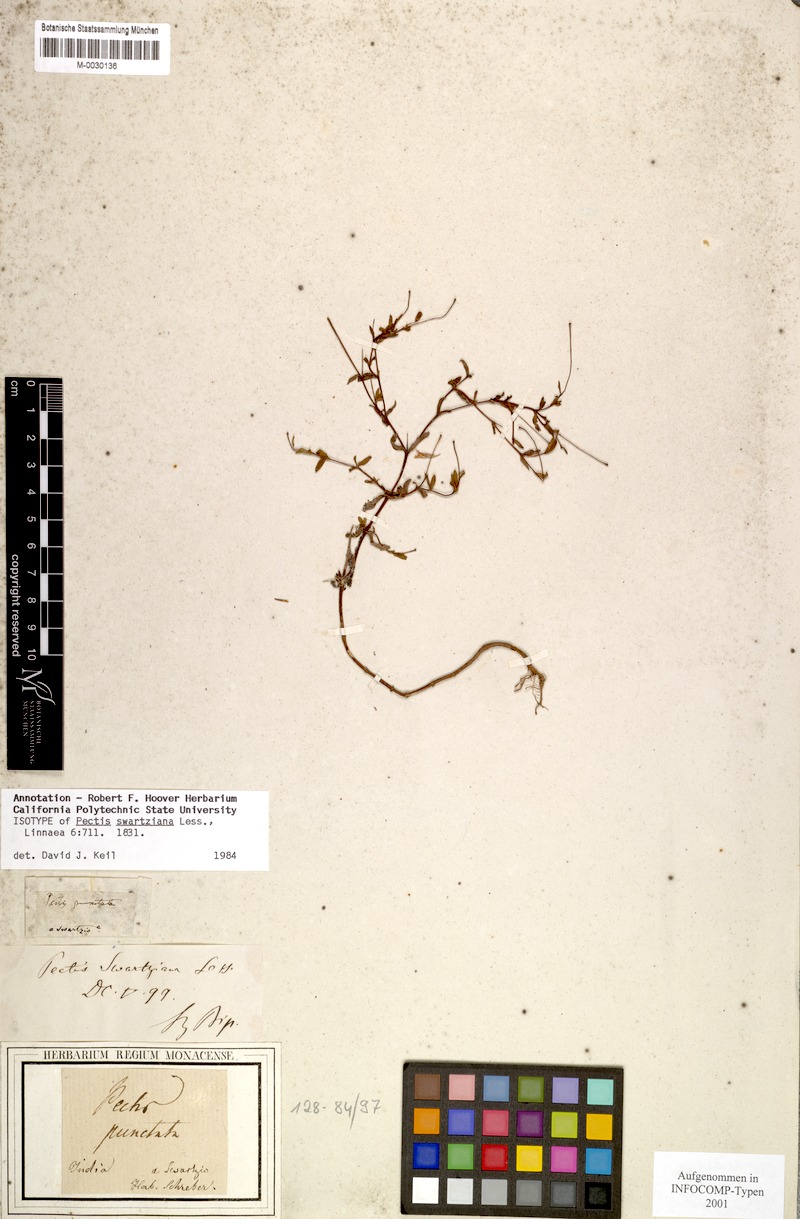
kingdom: Plantae
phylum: Tracheophyta
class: Magnoliopsida
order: Asterales
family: Asteraceae
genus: Pectis
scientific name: Pectis bonplandiana
